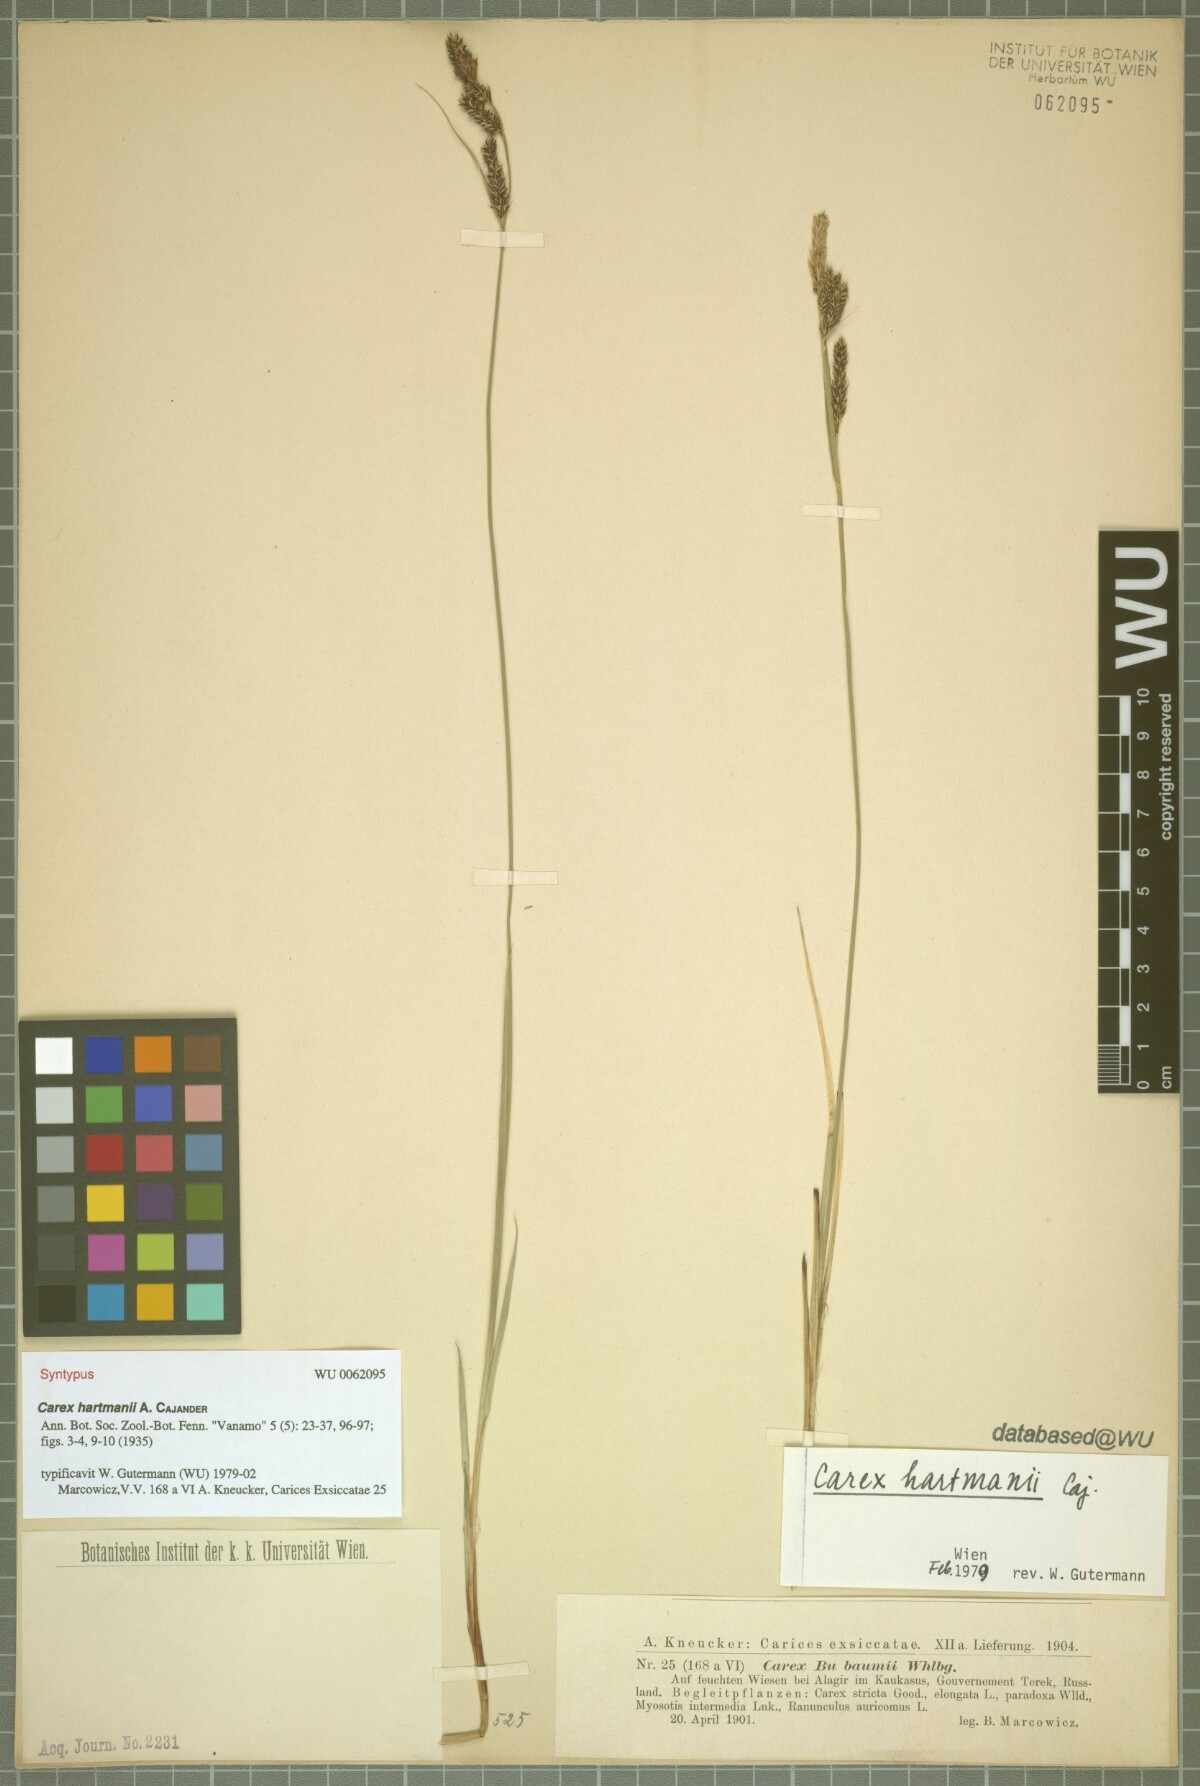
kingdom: Plantae
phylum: Tracheophyta
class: Liliopsida
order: Poales
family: Cyperaceae
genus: Carex
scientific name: Carex hartmaniorum
